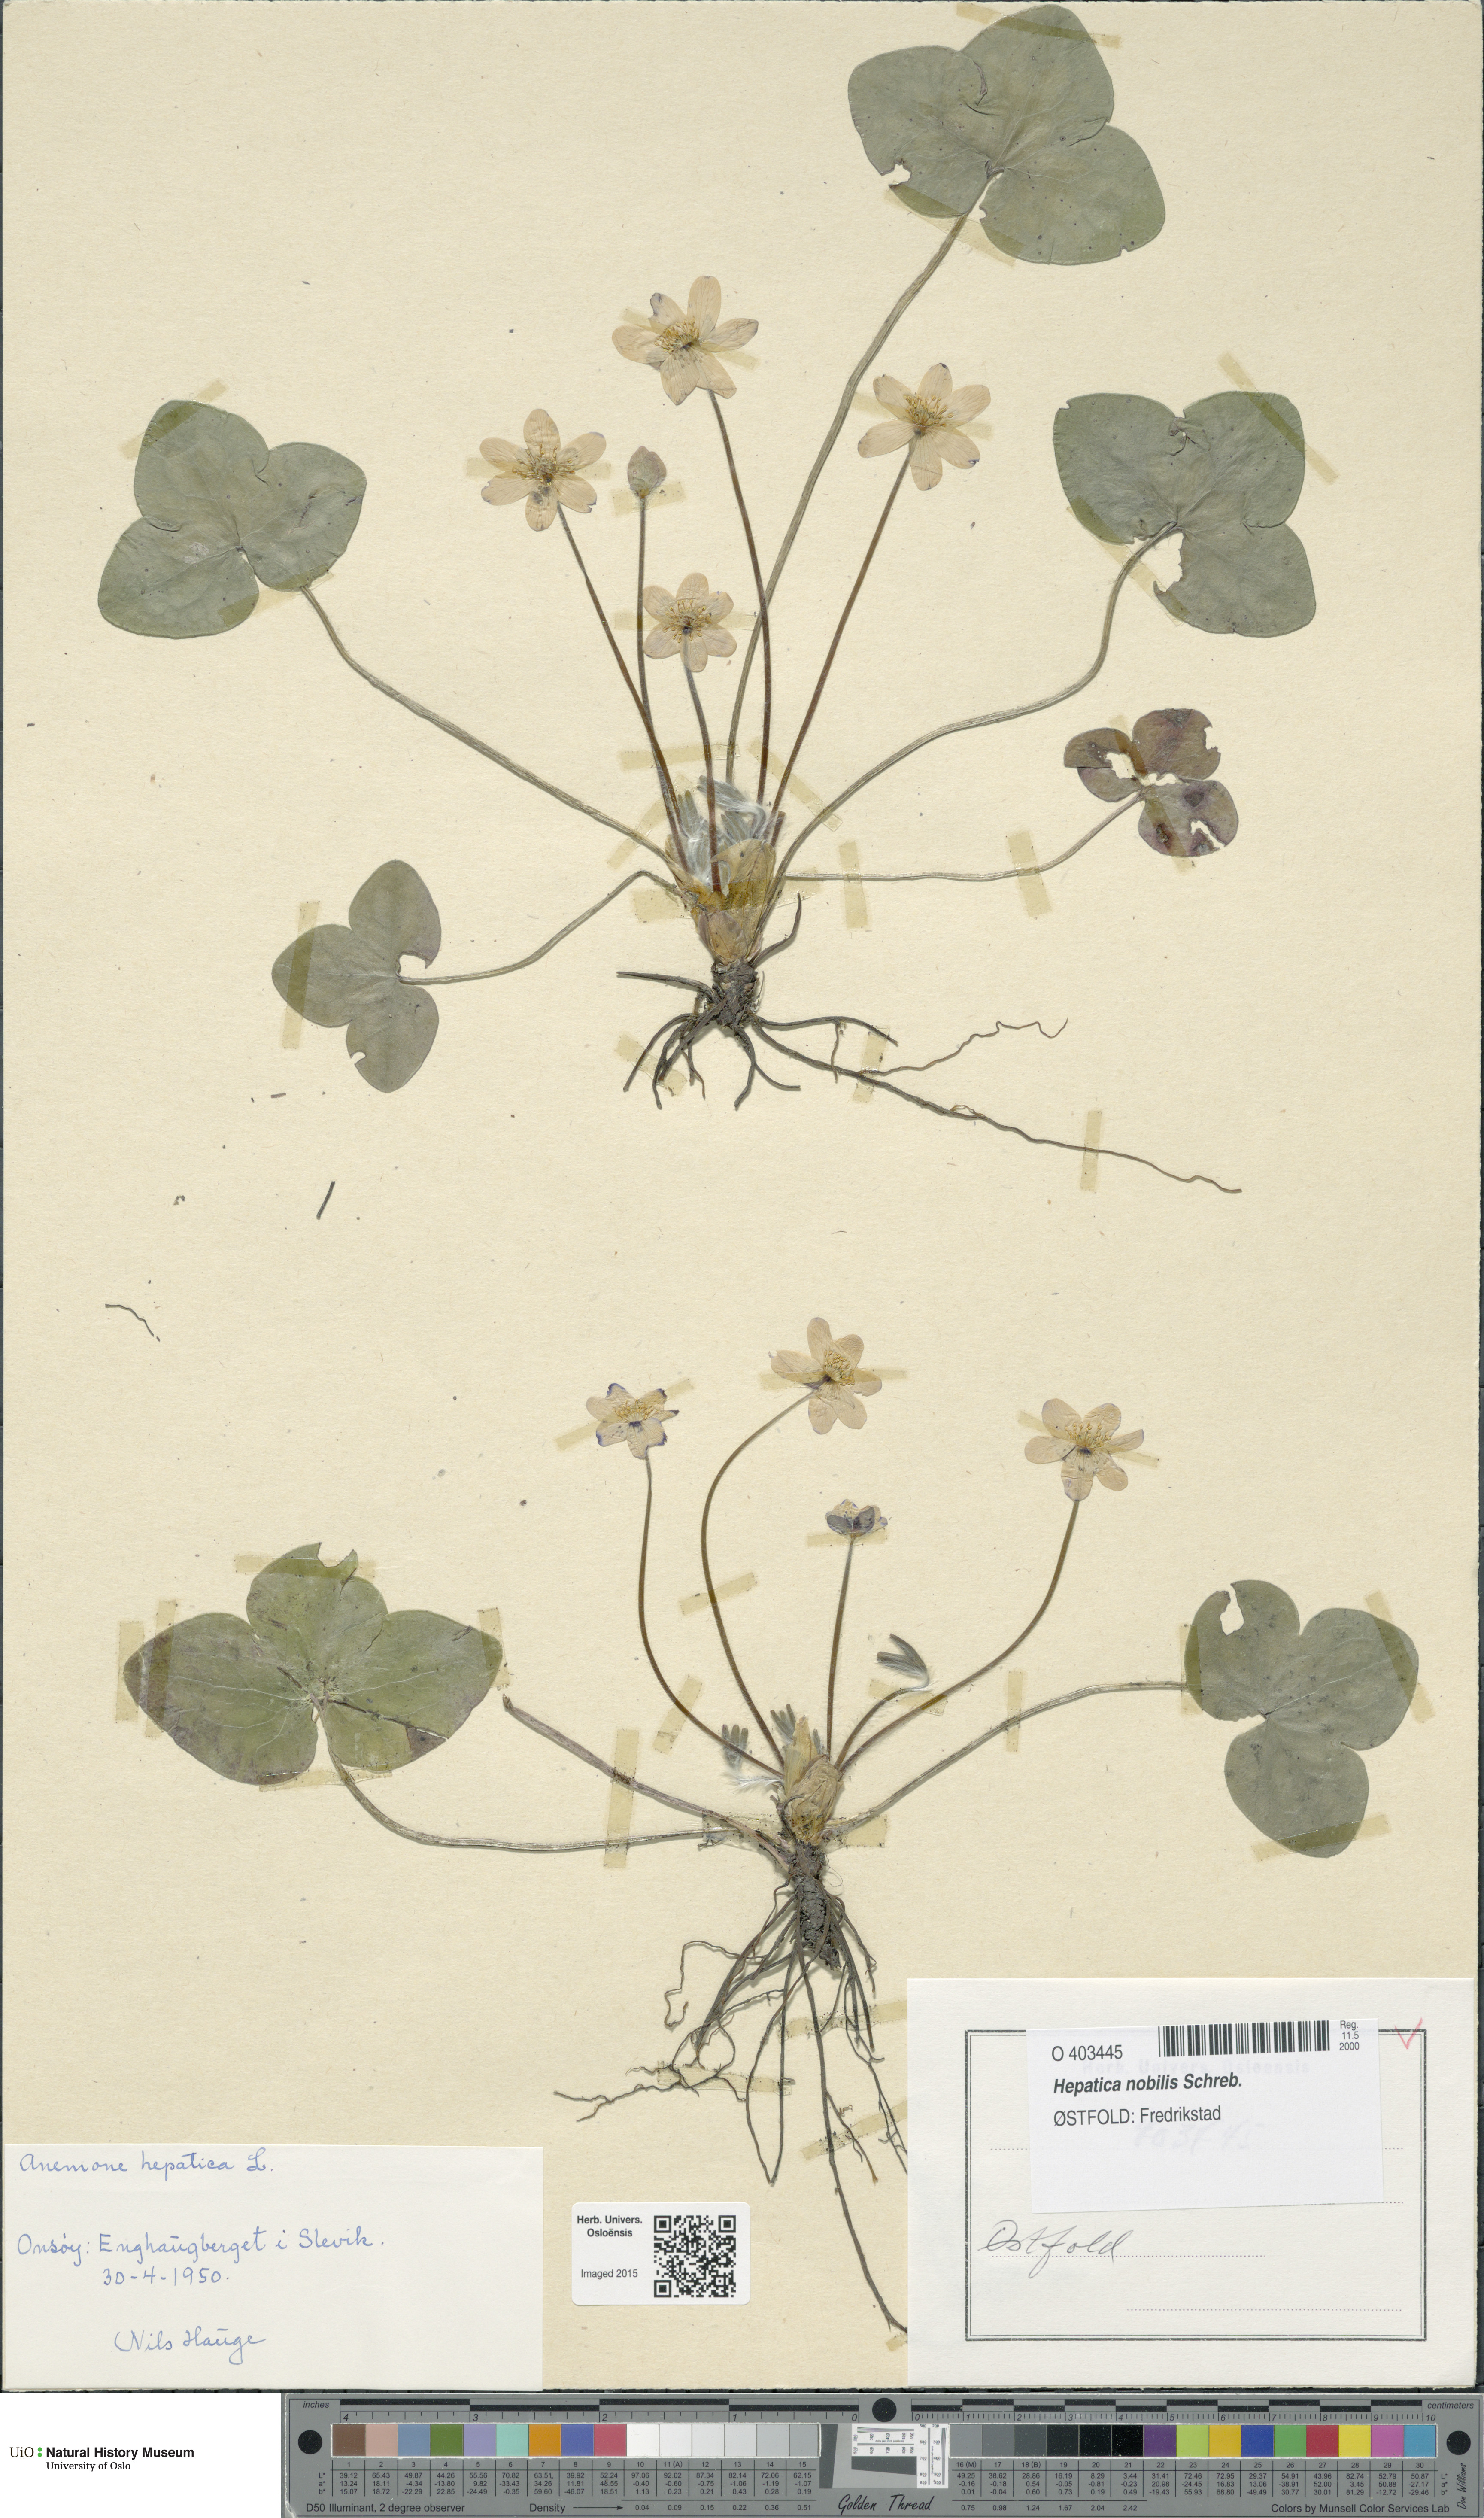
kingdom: Plantae
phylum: Tracheophyta
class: Magnoliopsida
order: Ranunculales
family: Ranunculaceae
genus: Hepatica
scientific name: Hepatica nobilis
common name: Liverleaf
